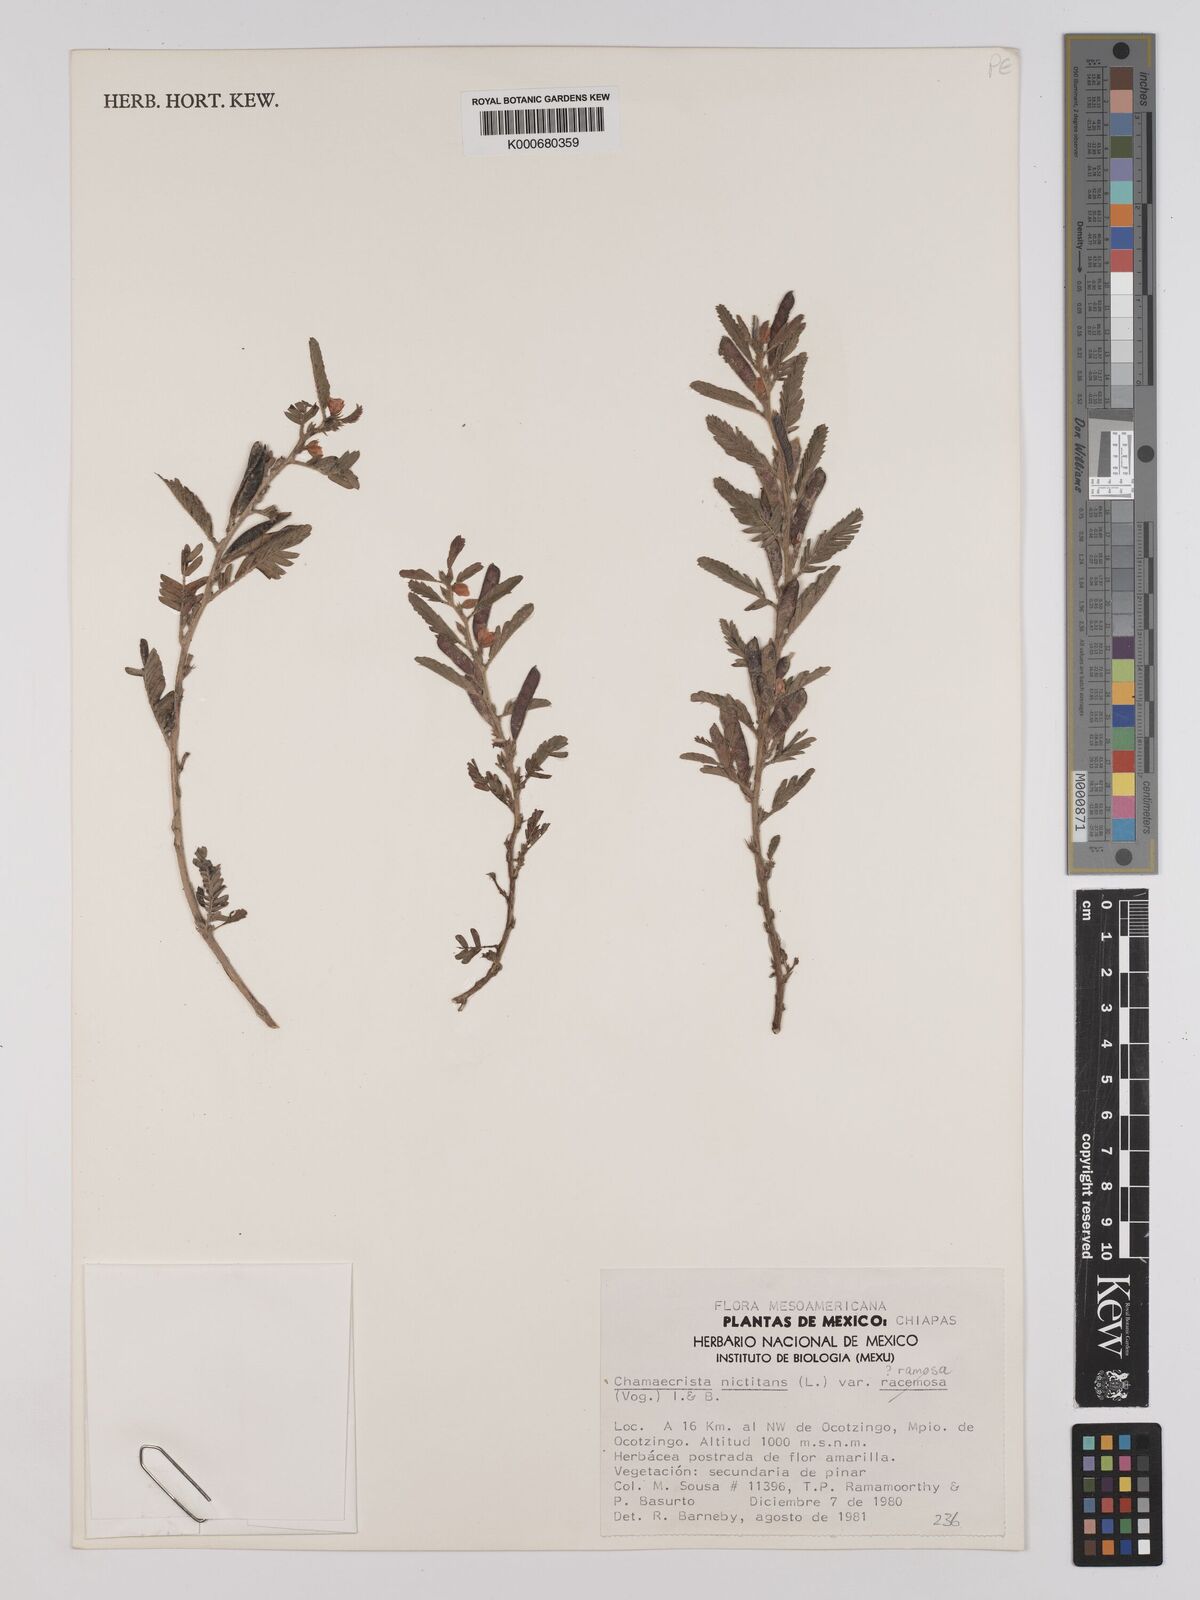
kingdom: Plantae
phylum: Tracheophyta
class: Magnoliopsida
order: Fabales
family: Fabaceae
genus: Chamaecrista
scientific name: Chamaecrista nictitans
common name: Sensitive cassia
